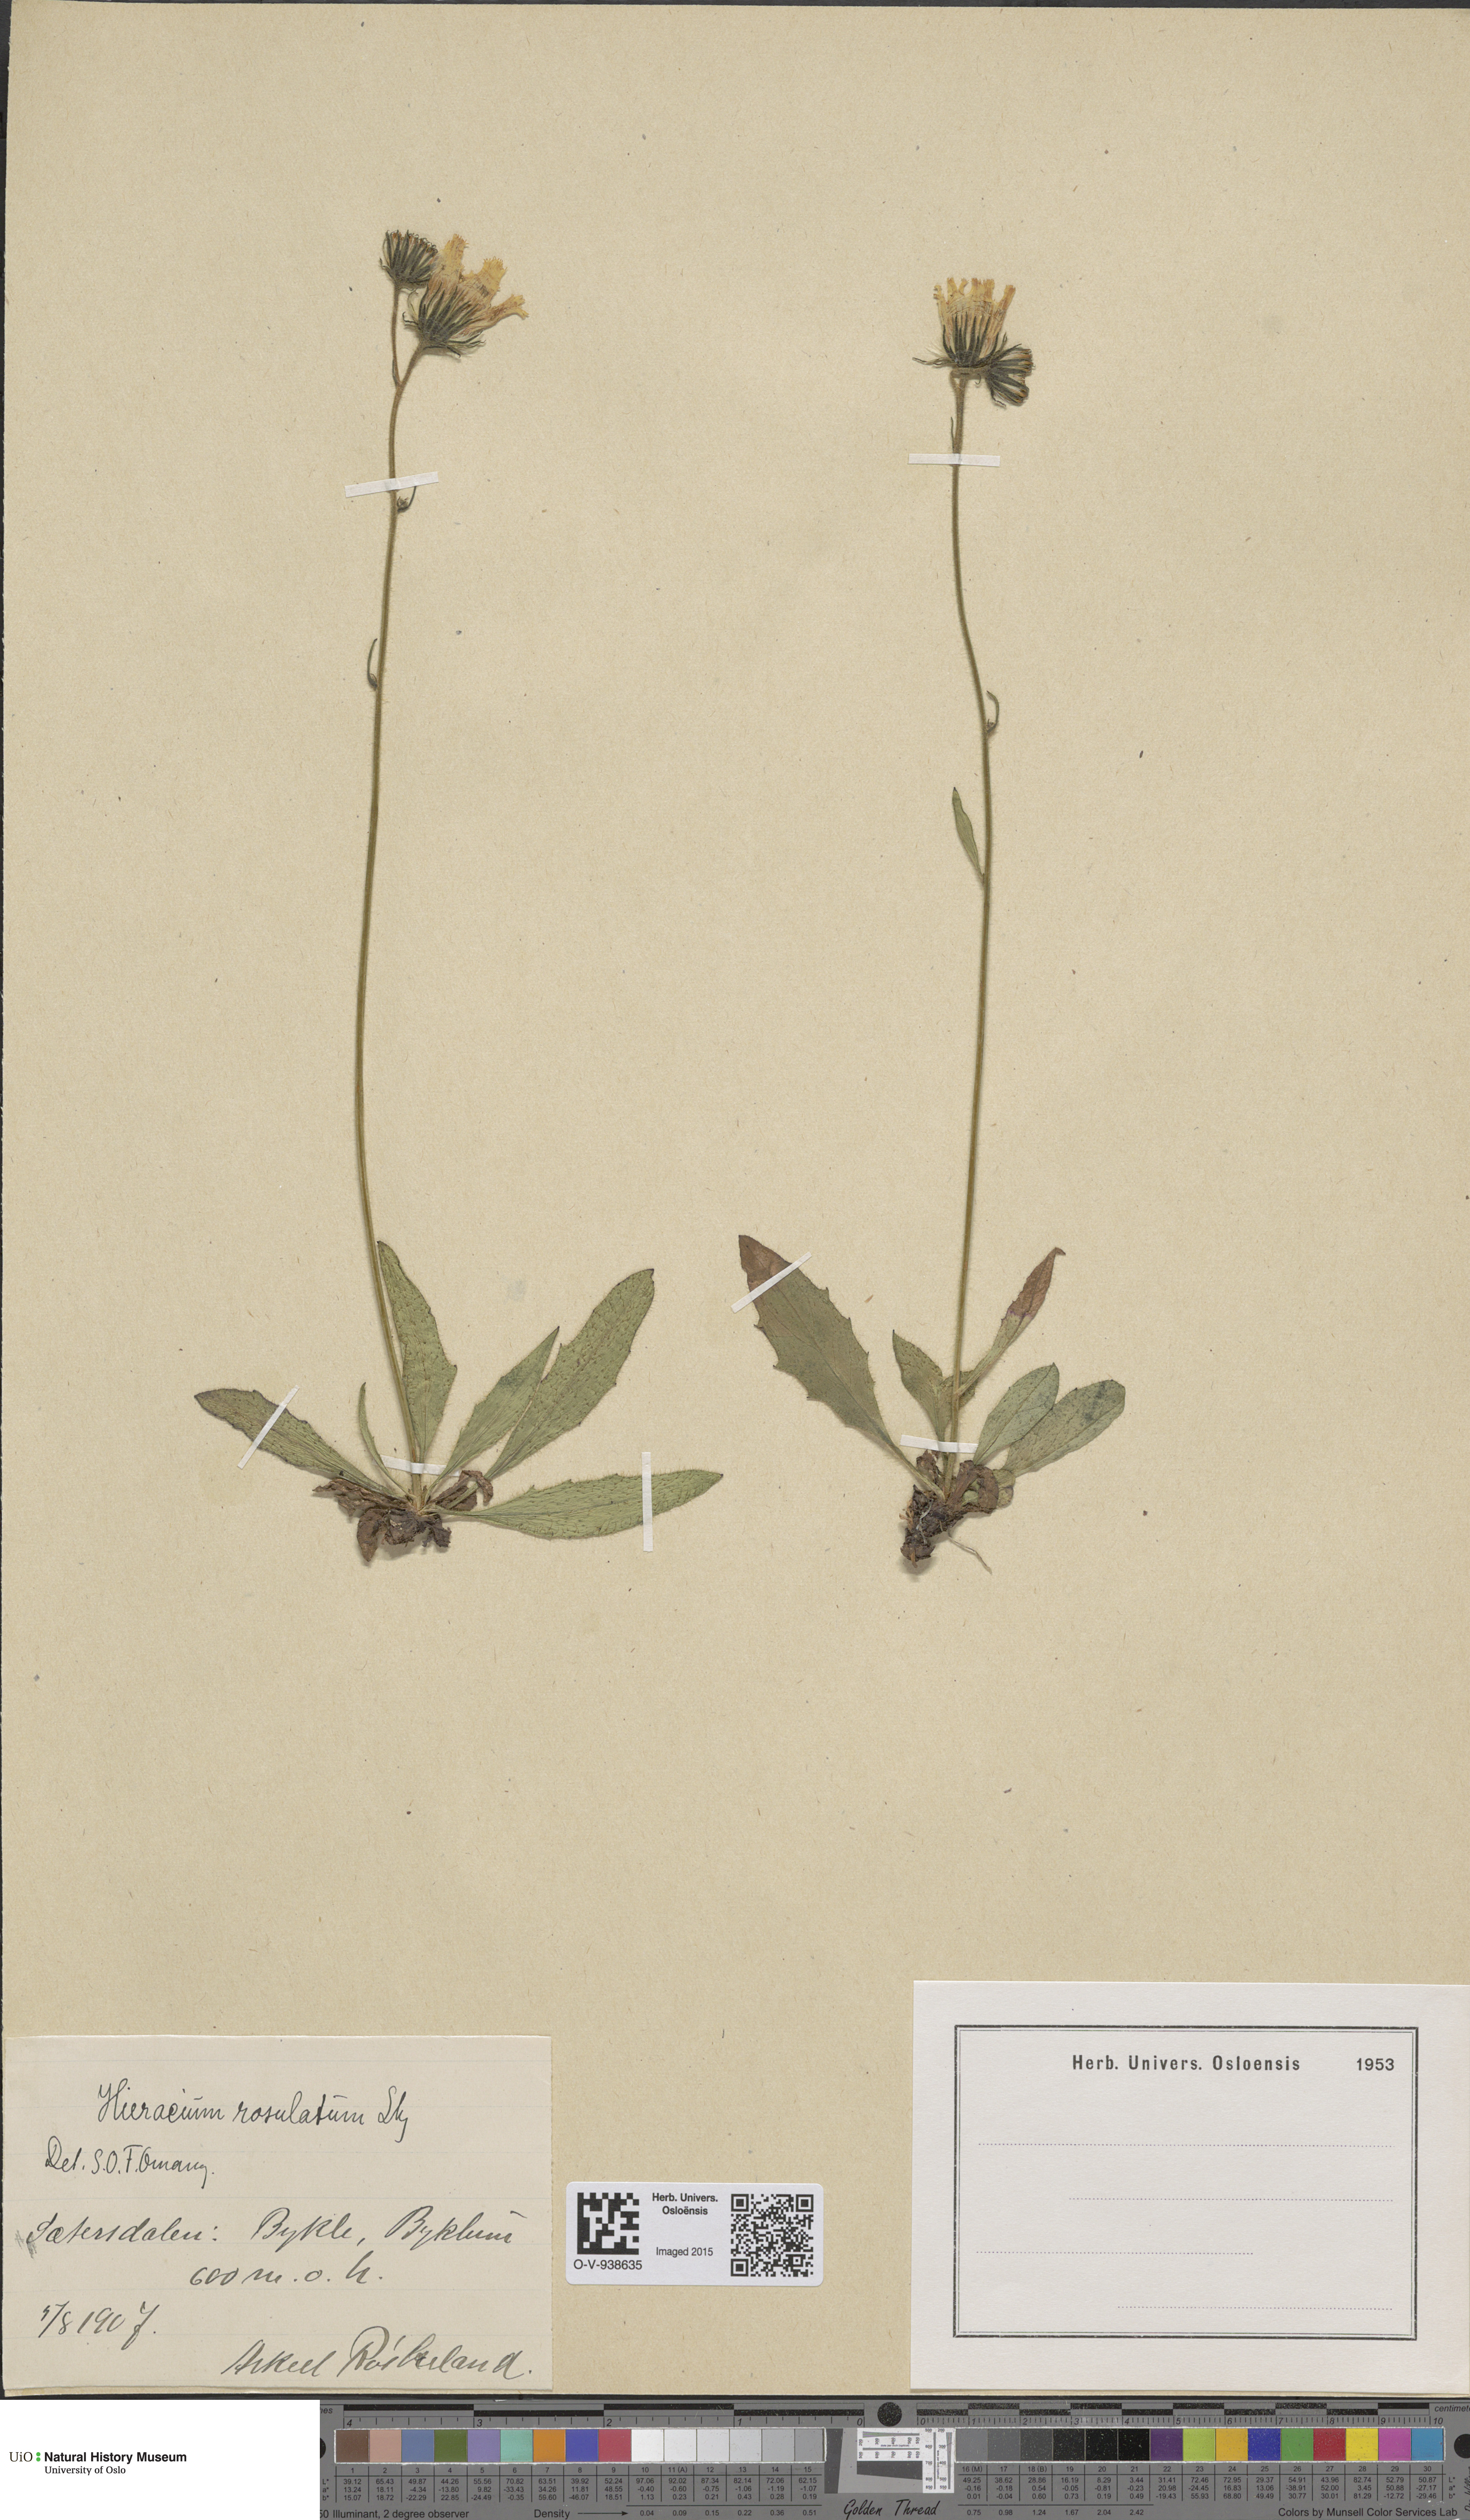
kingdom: Plantae
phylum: Tracheophyta
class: Magnoliopsida
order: Asterales
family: Asteraceae
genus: Hieracium
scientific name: Hieracium rosulatum
